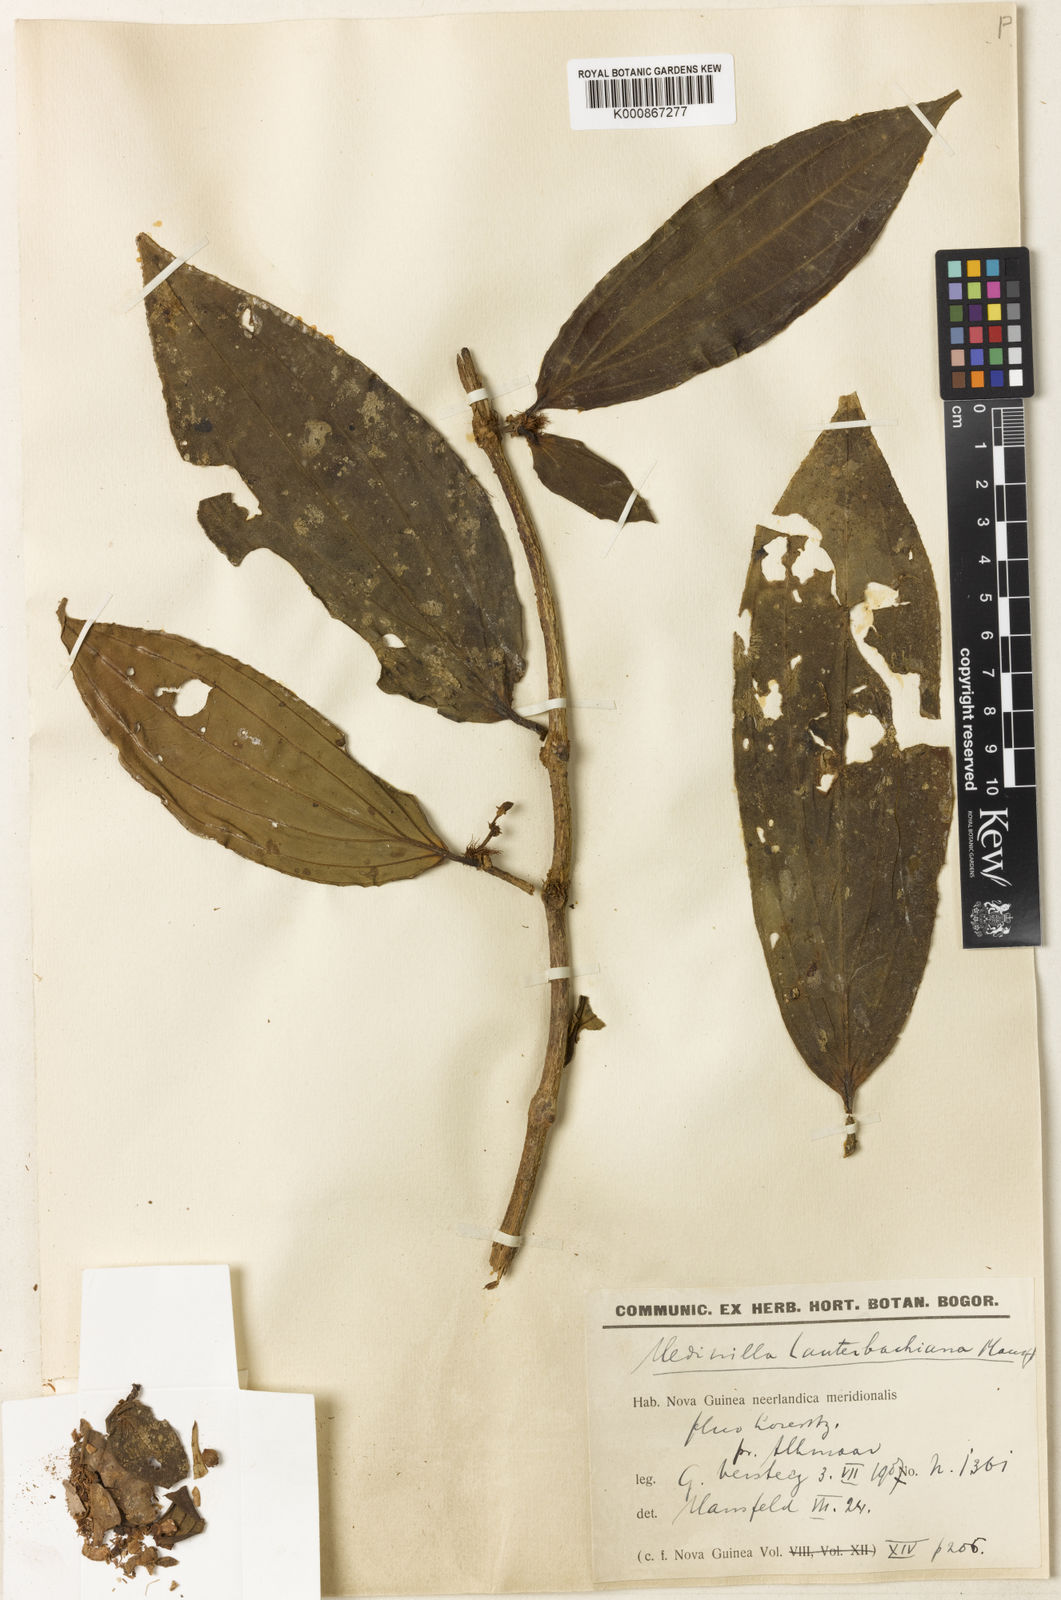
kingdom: Plantae
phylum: Tracheophyta
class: Magnoliopsida
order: Myrtales
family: Melastomataceae
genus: Medinilla
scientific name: Medinilla lauterbachiana
